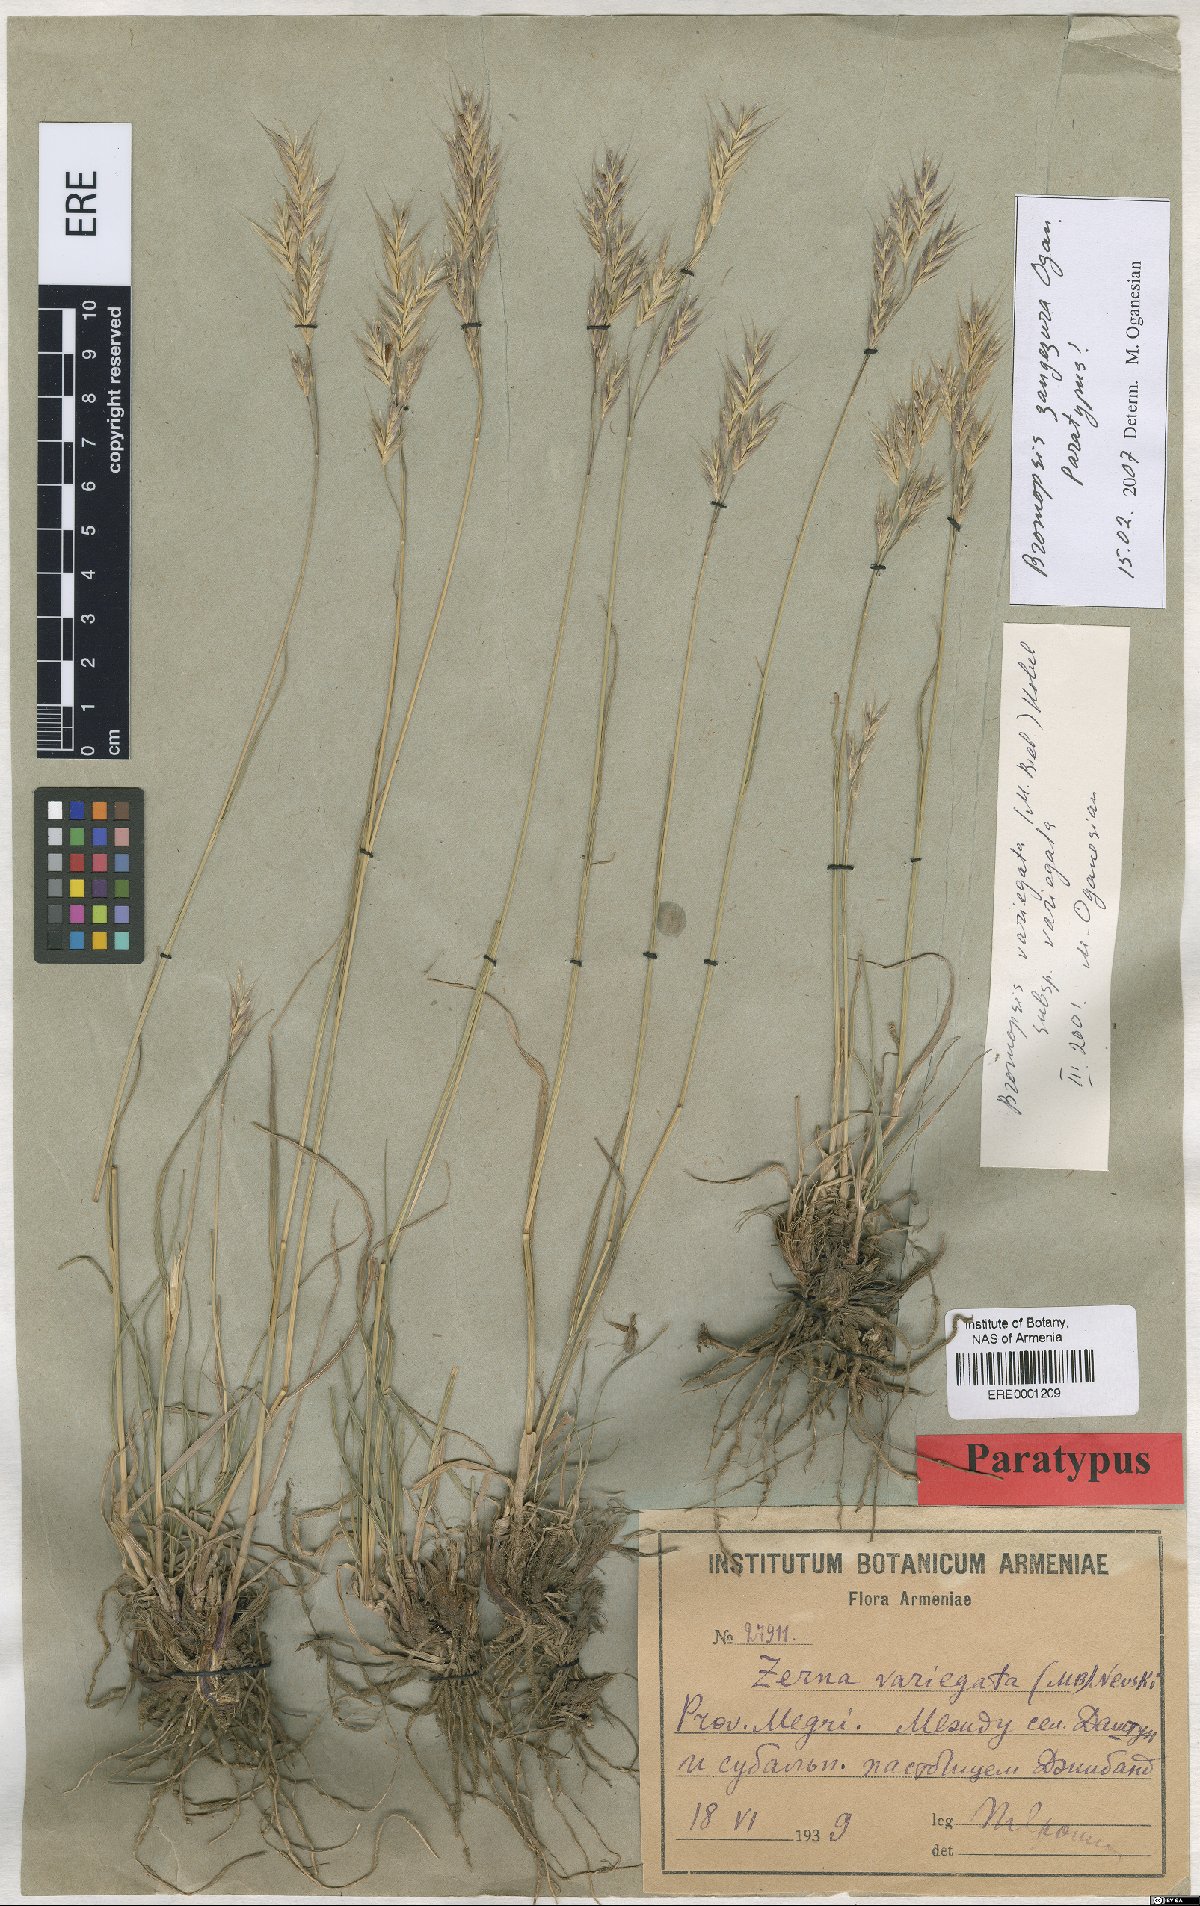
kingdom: Plantae
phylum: Tracheophyta
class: Liliopsida
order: Poales
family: Poaceae
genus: Bromus
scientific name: Bromus erectus
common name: Erect brome
